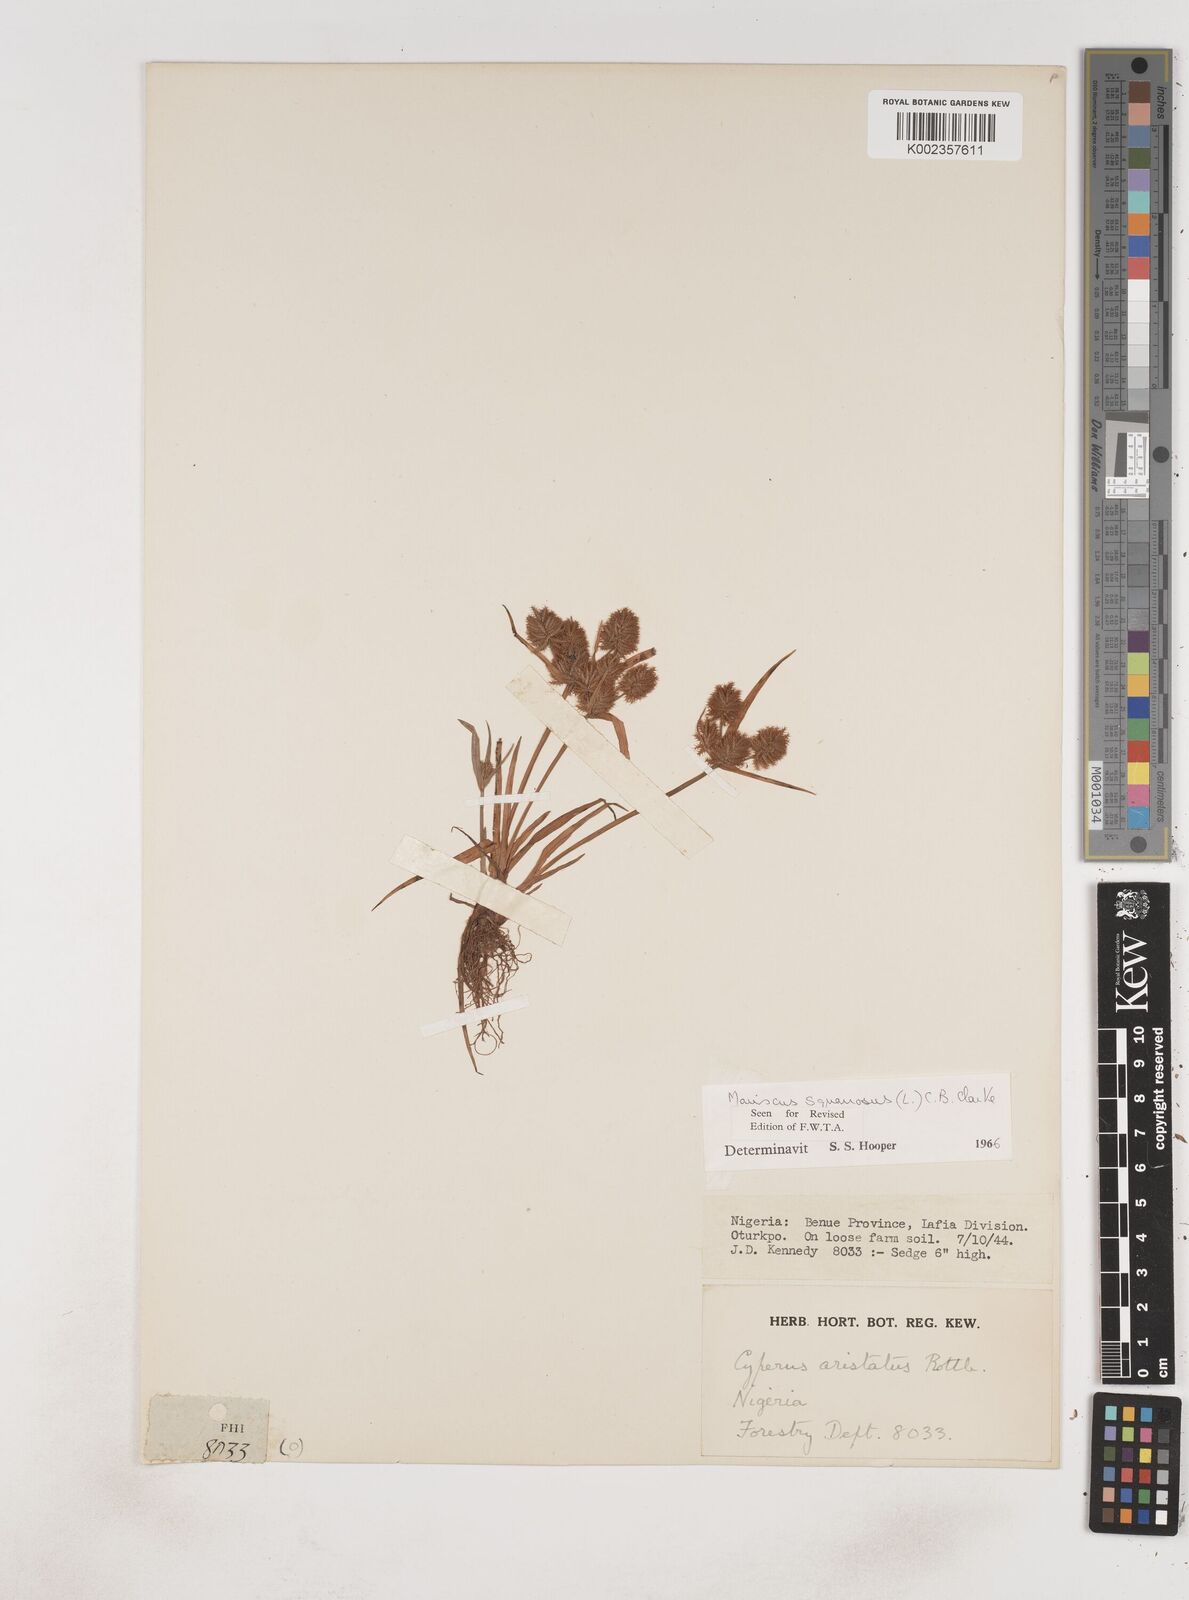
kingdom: Plantae
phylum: Tracheophyta
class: Liliopsida
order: Poales
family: Cyperaceae
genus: Cyperus
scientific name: Cyperus squarrosus
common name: Awned cyperus
